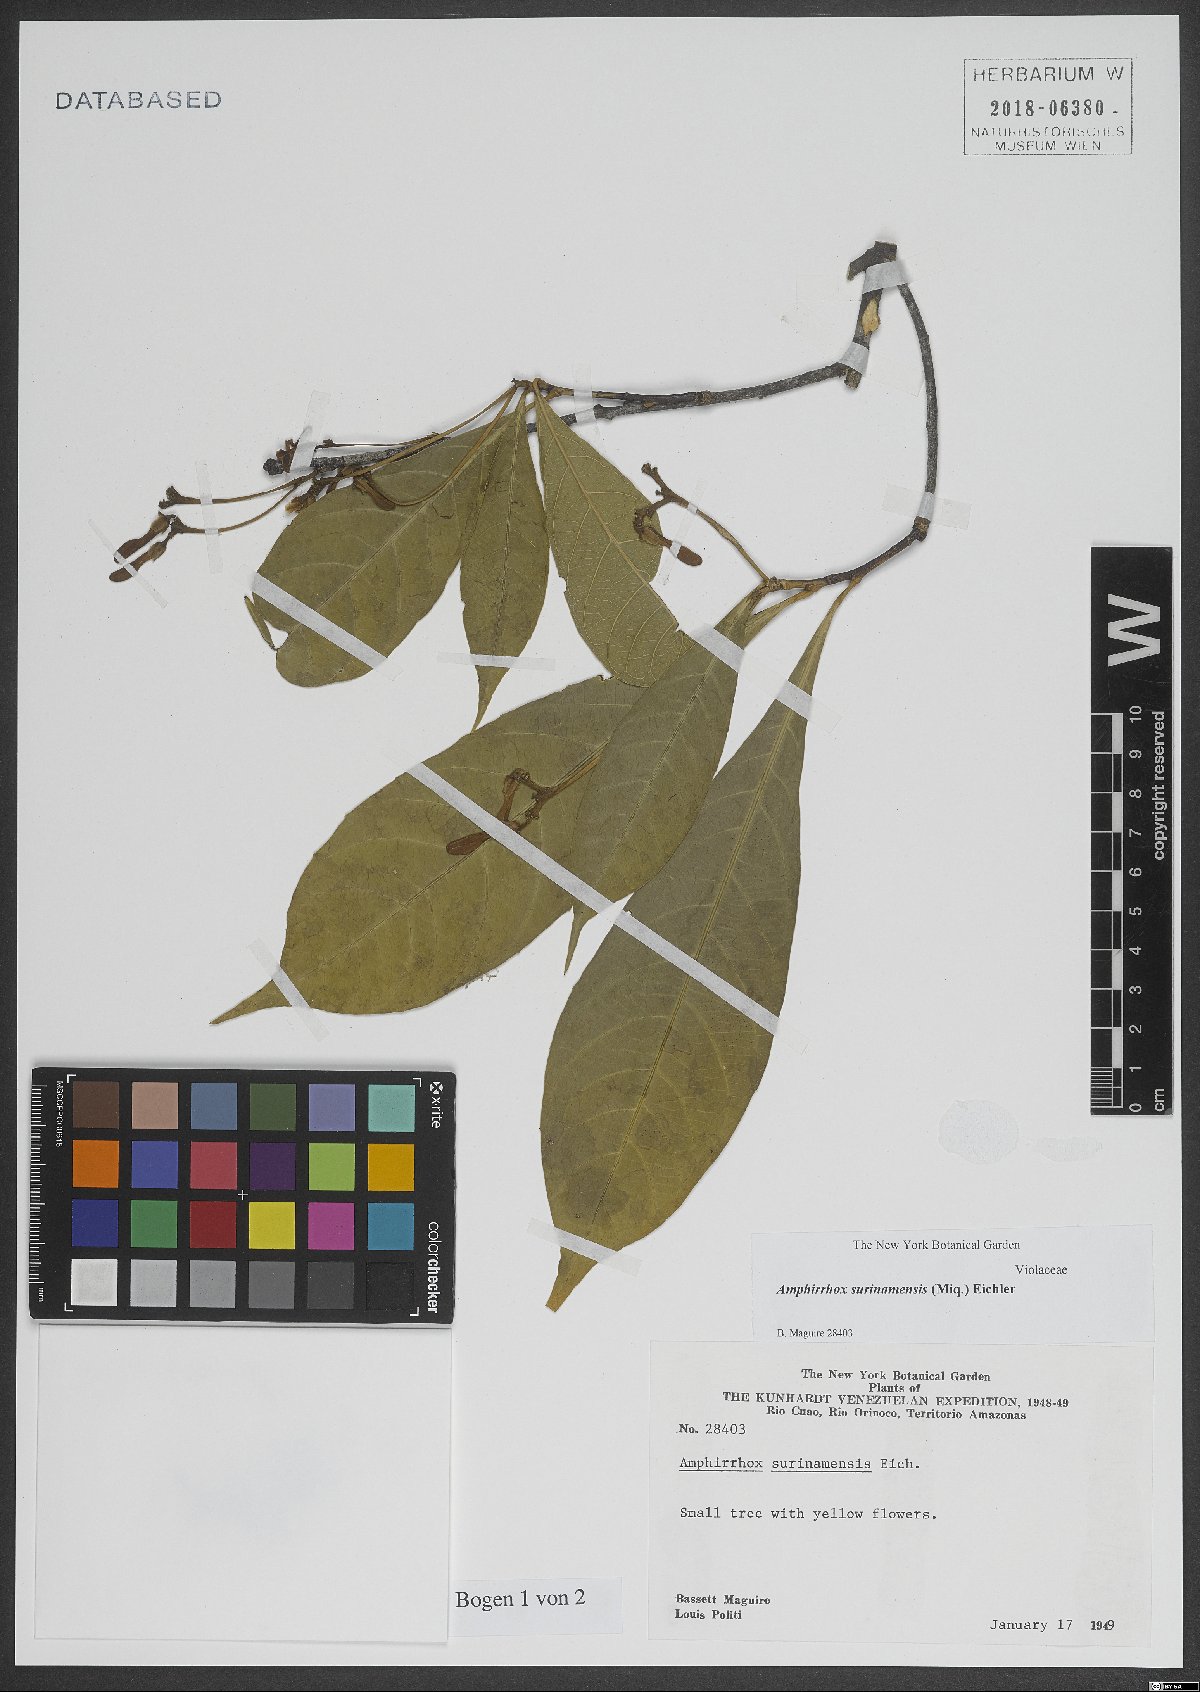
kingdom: Plantae
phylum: Tracheophyta
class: Magnoliopsida
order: Malpighiales
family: Violaceae
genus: Amphirrhox
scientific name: Amphirrhox longifolia
